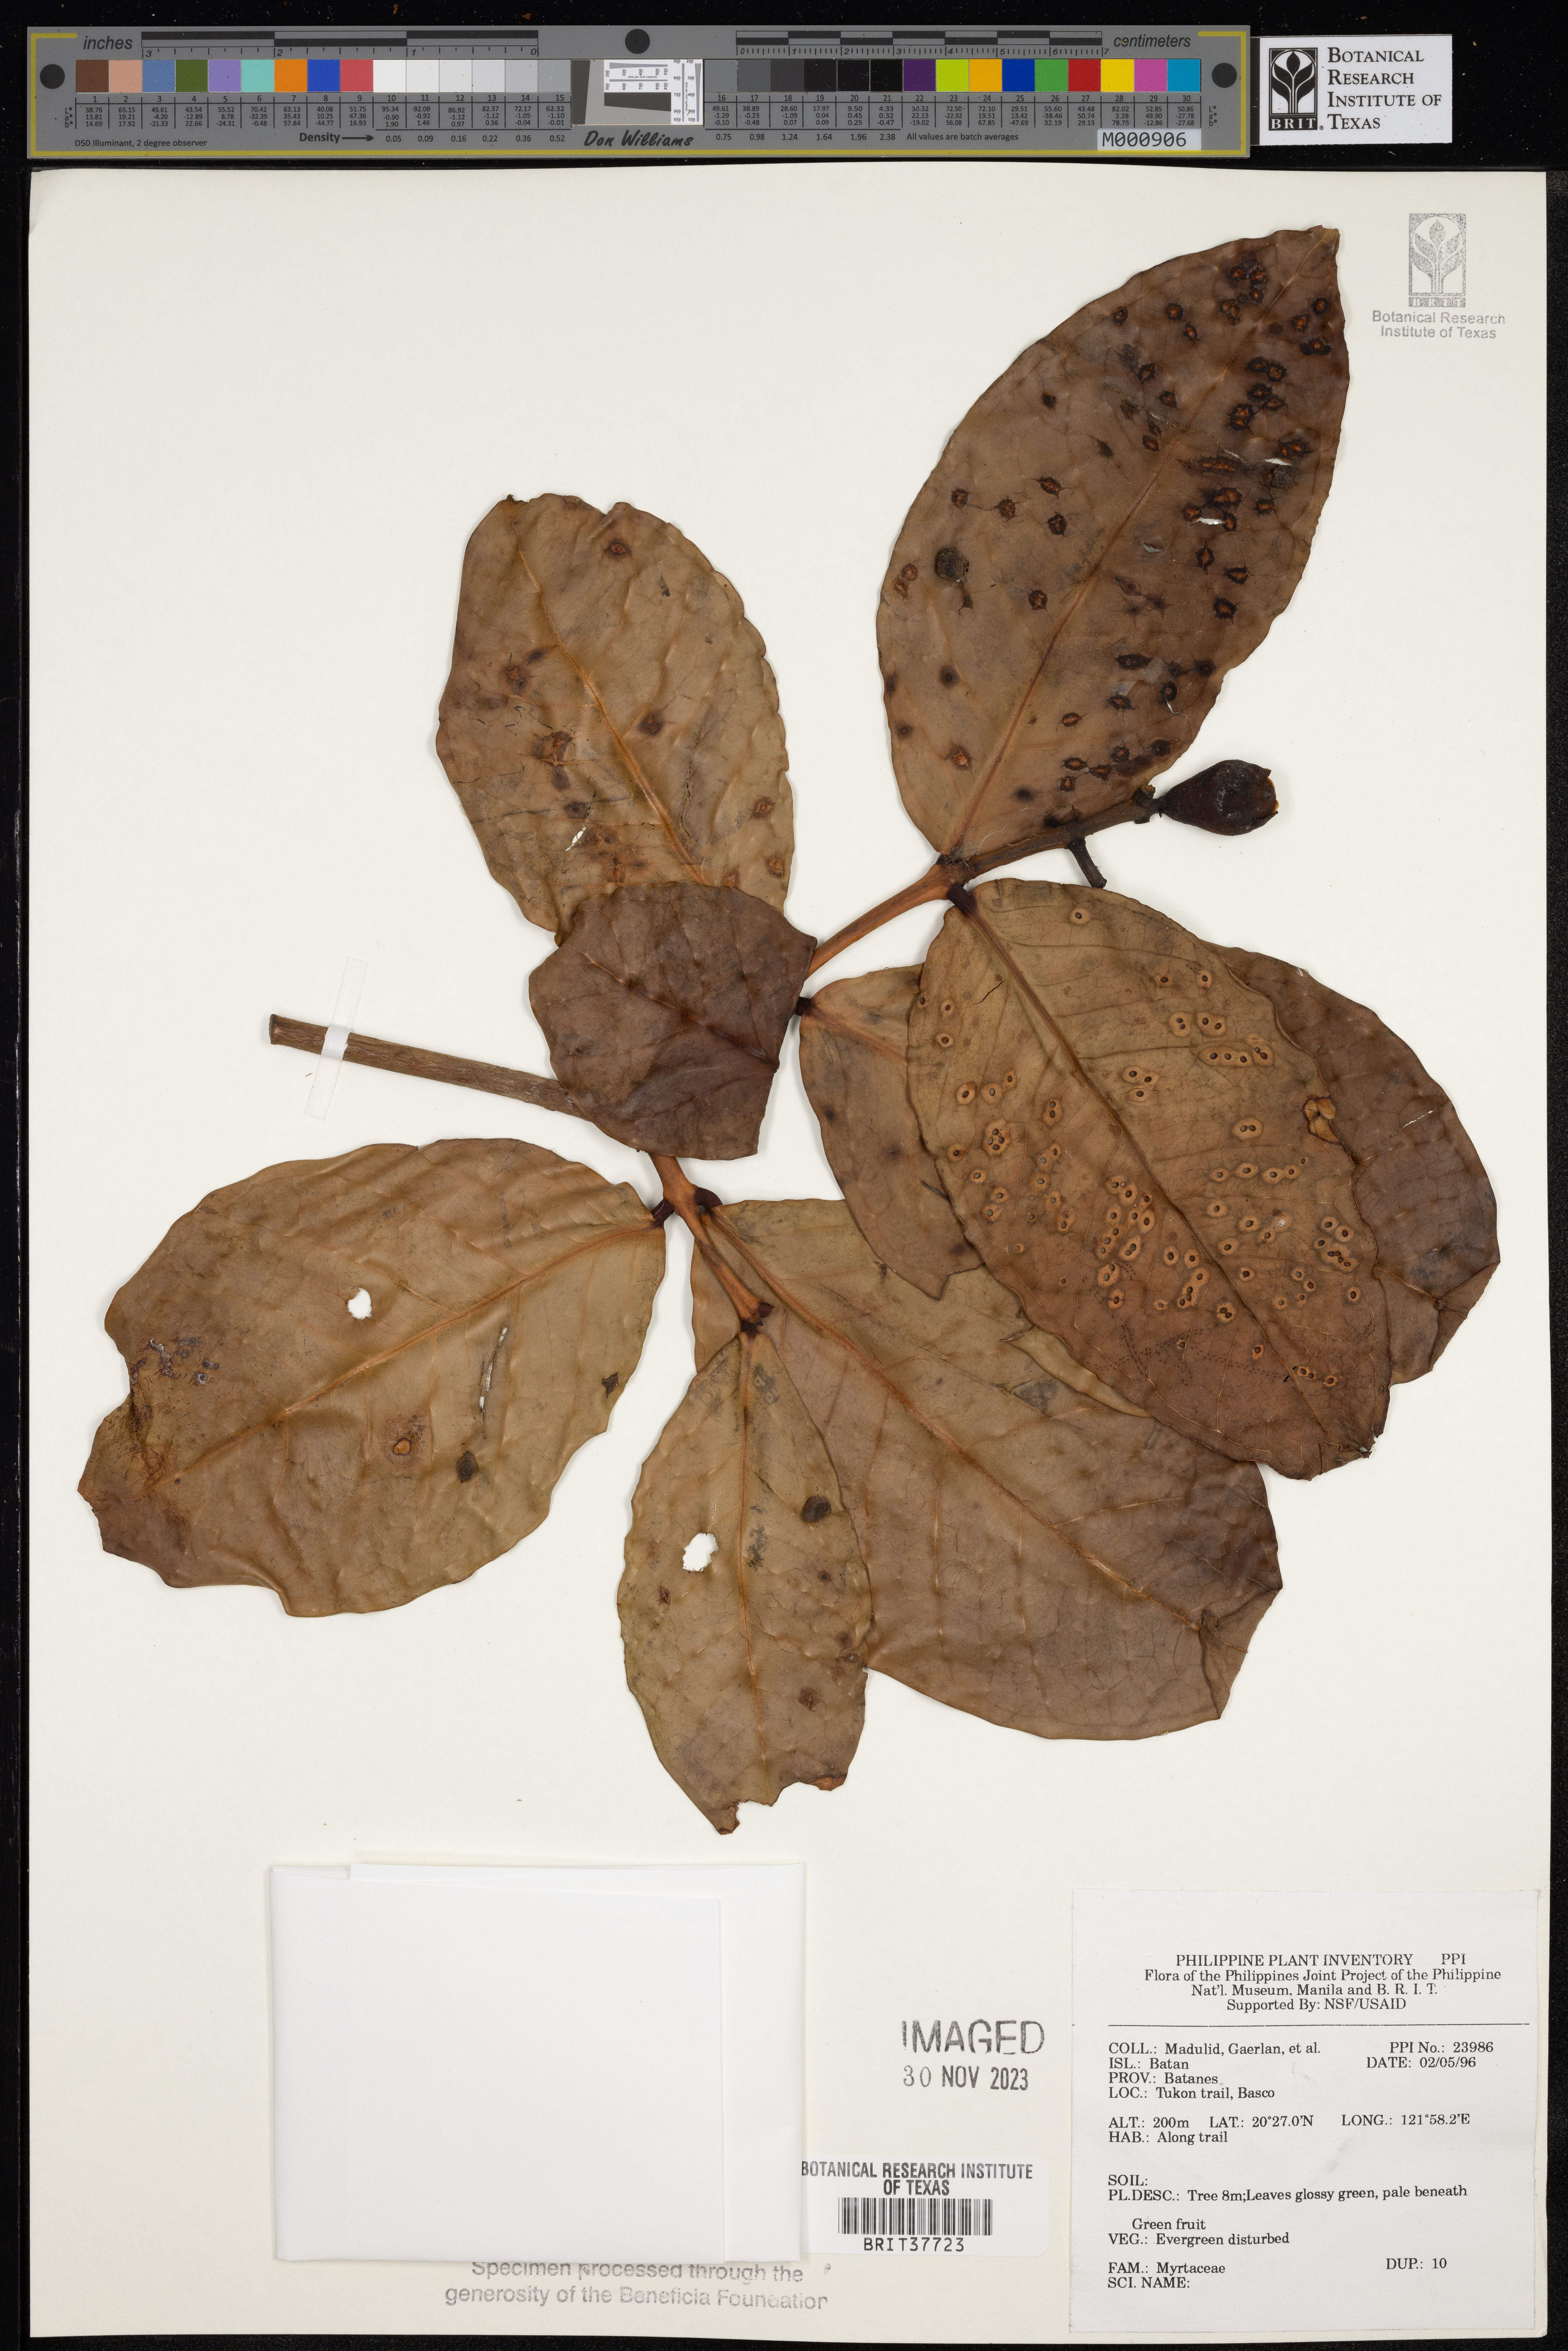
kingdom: Plantae
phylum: Tracheophyta
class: Magnoliopsida
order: Myrtales
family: Myrtaceae
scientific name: Myrtaceae
